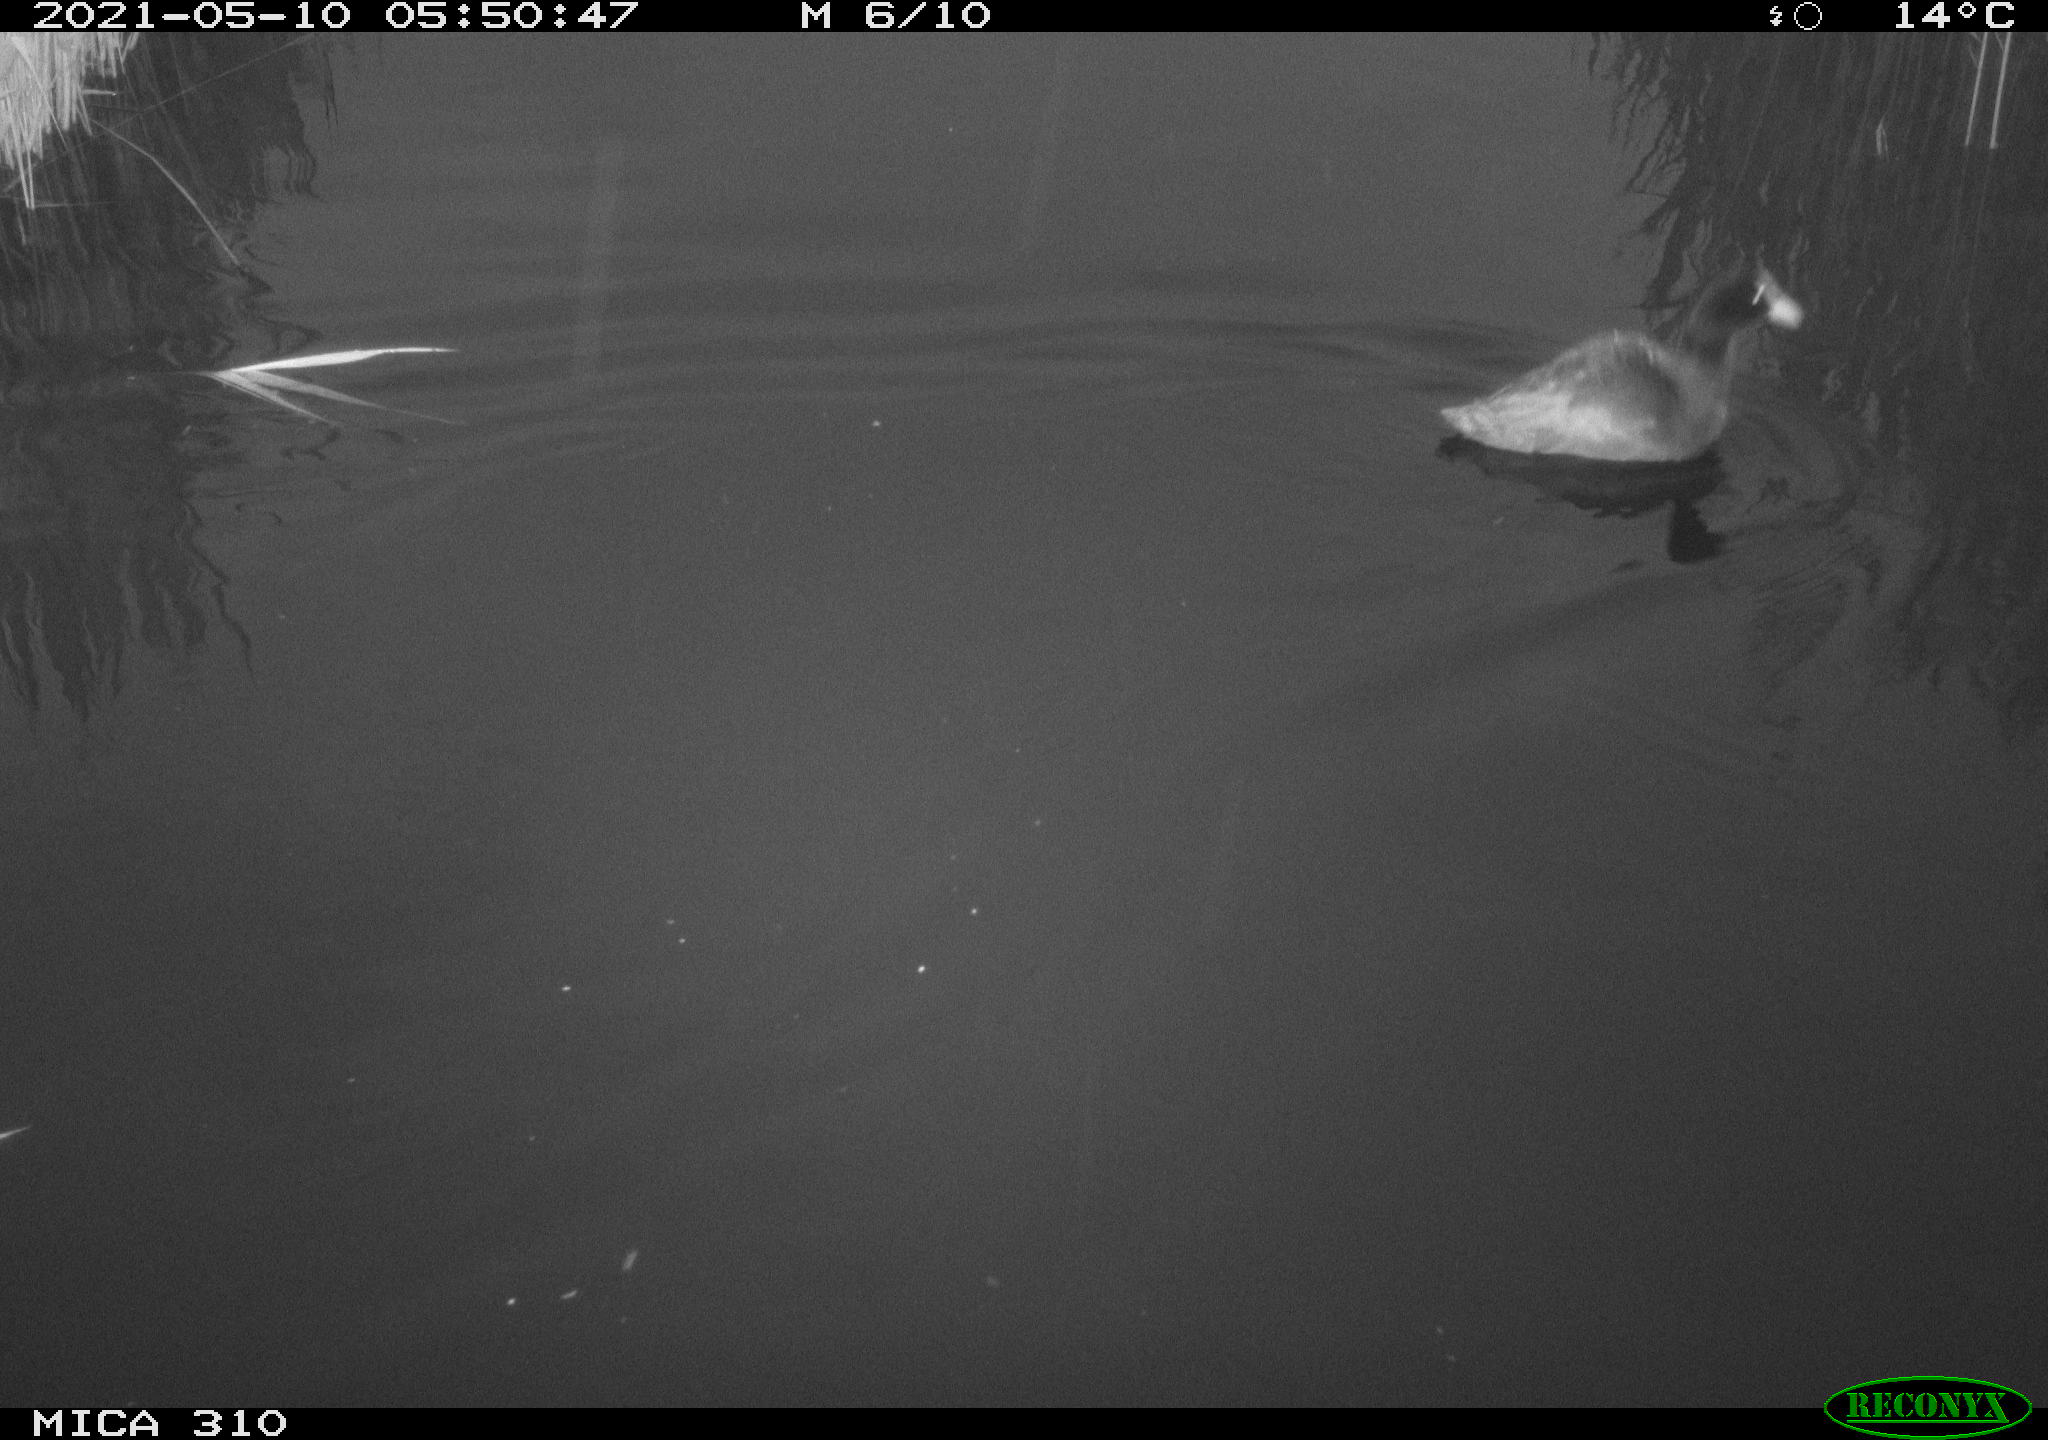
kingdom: Animalia
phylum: Chordata
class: Aves
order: Gruiformes
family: Rallidae
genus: Fulica
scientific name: Fulica atra
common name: Eurasian coot
